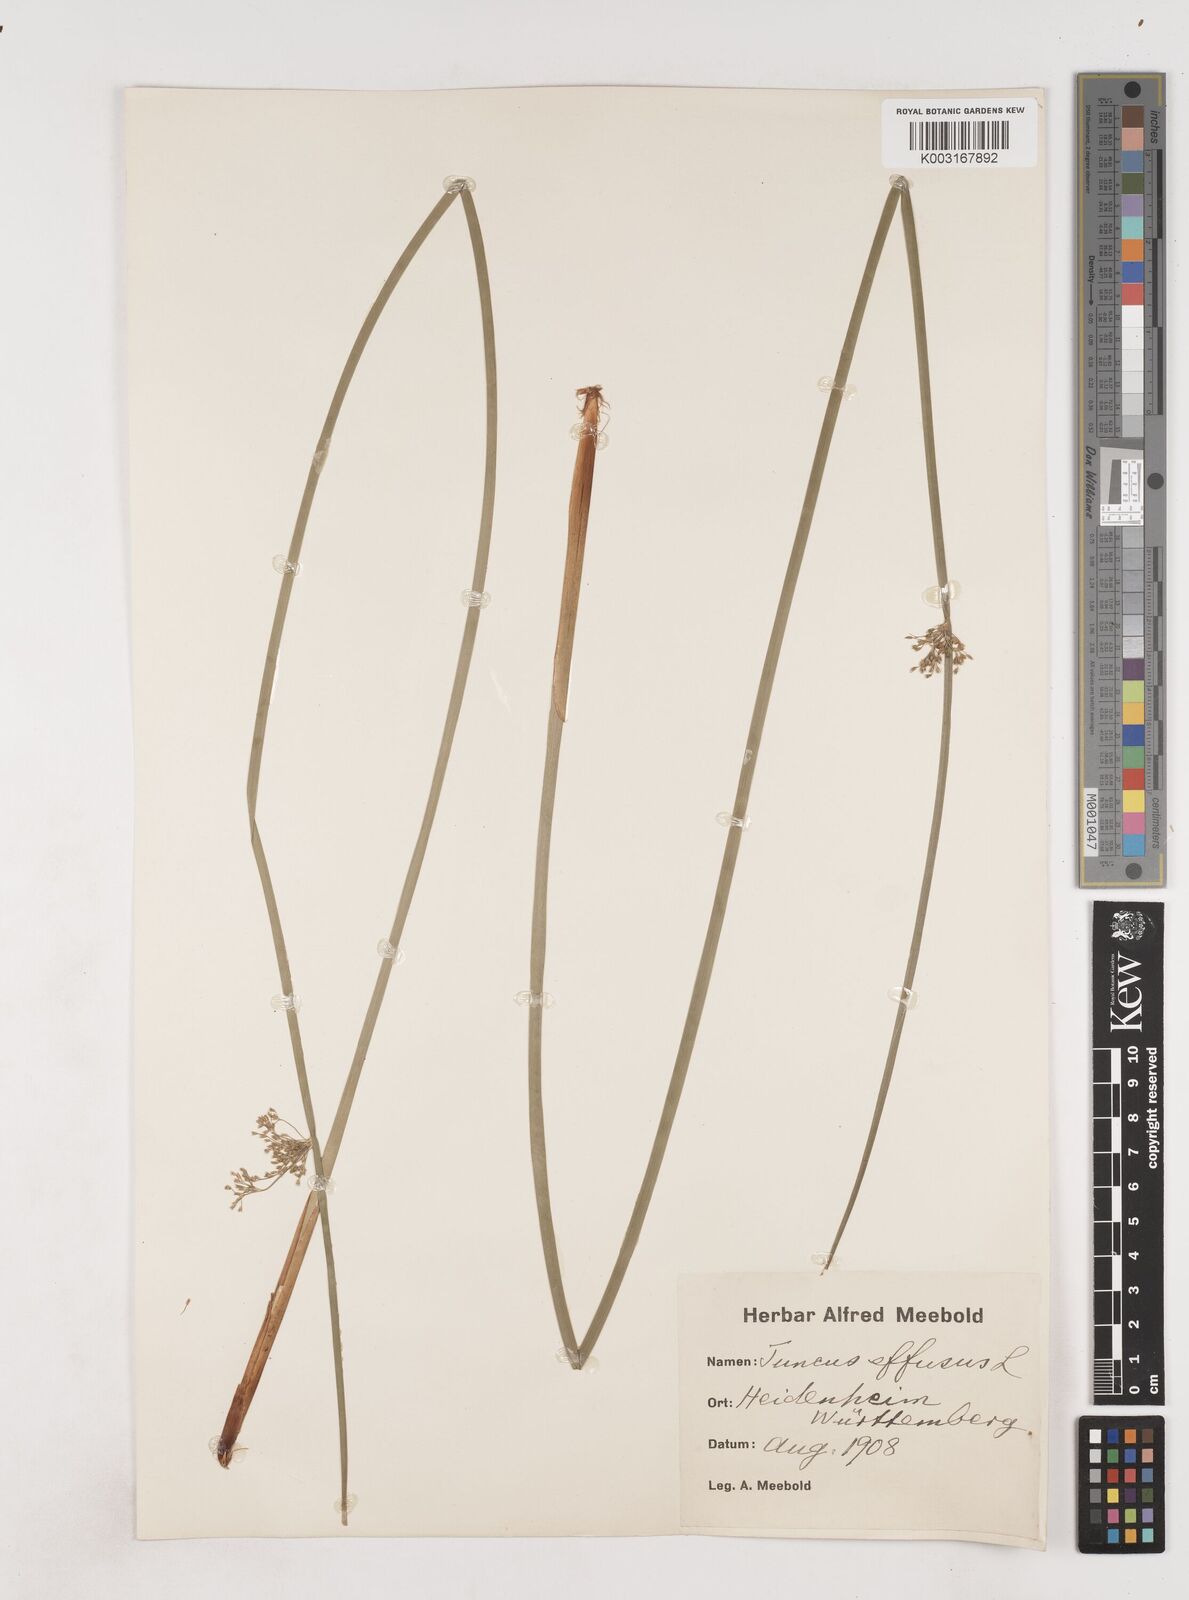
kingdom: Plantae
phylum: Tracheophyta
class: Liliopsida
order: Poales
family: Juncaceae
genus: Juncus
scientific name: Juncus effusus
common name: Soft rush
